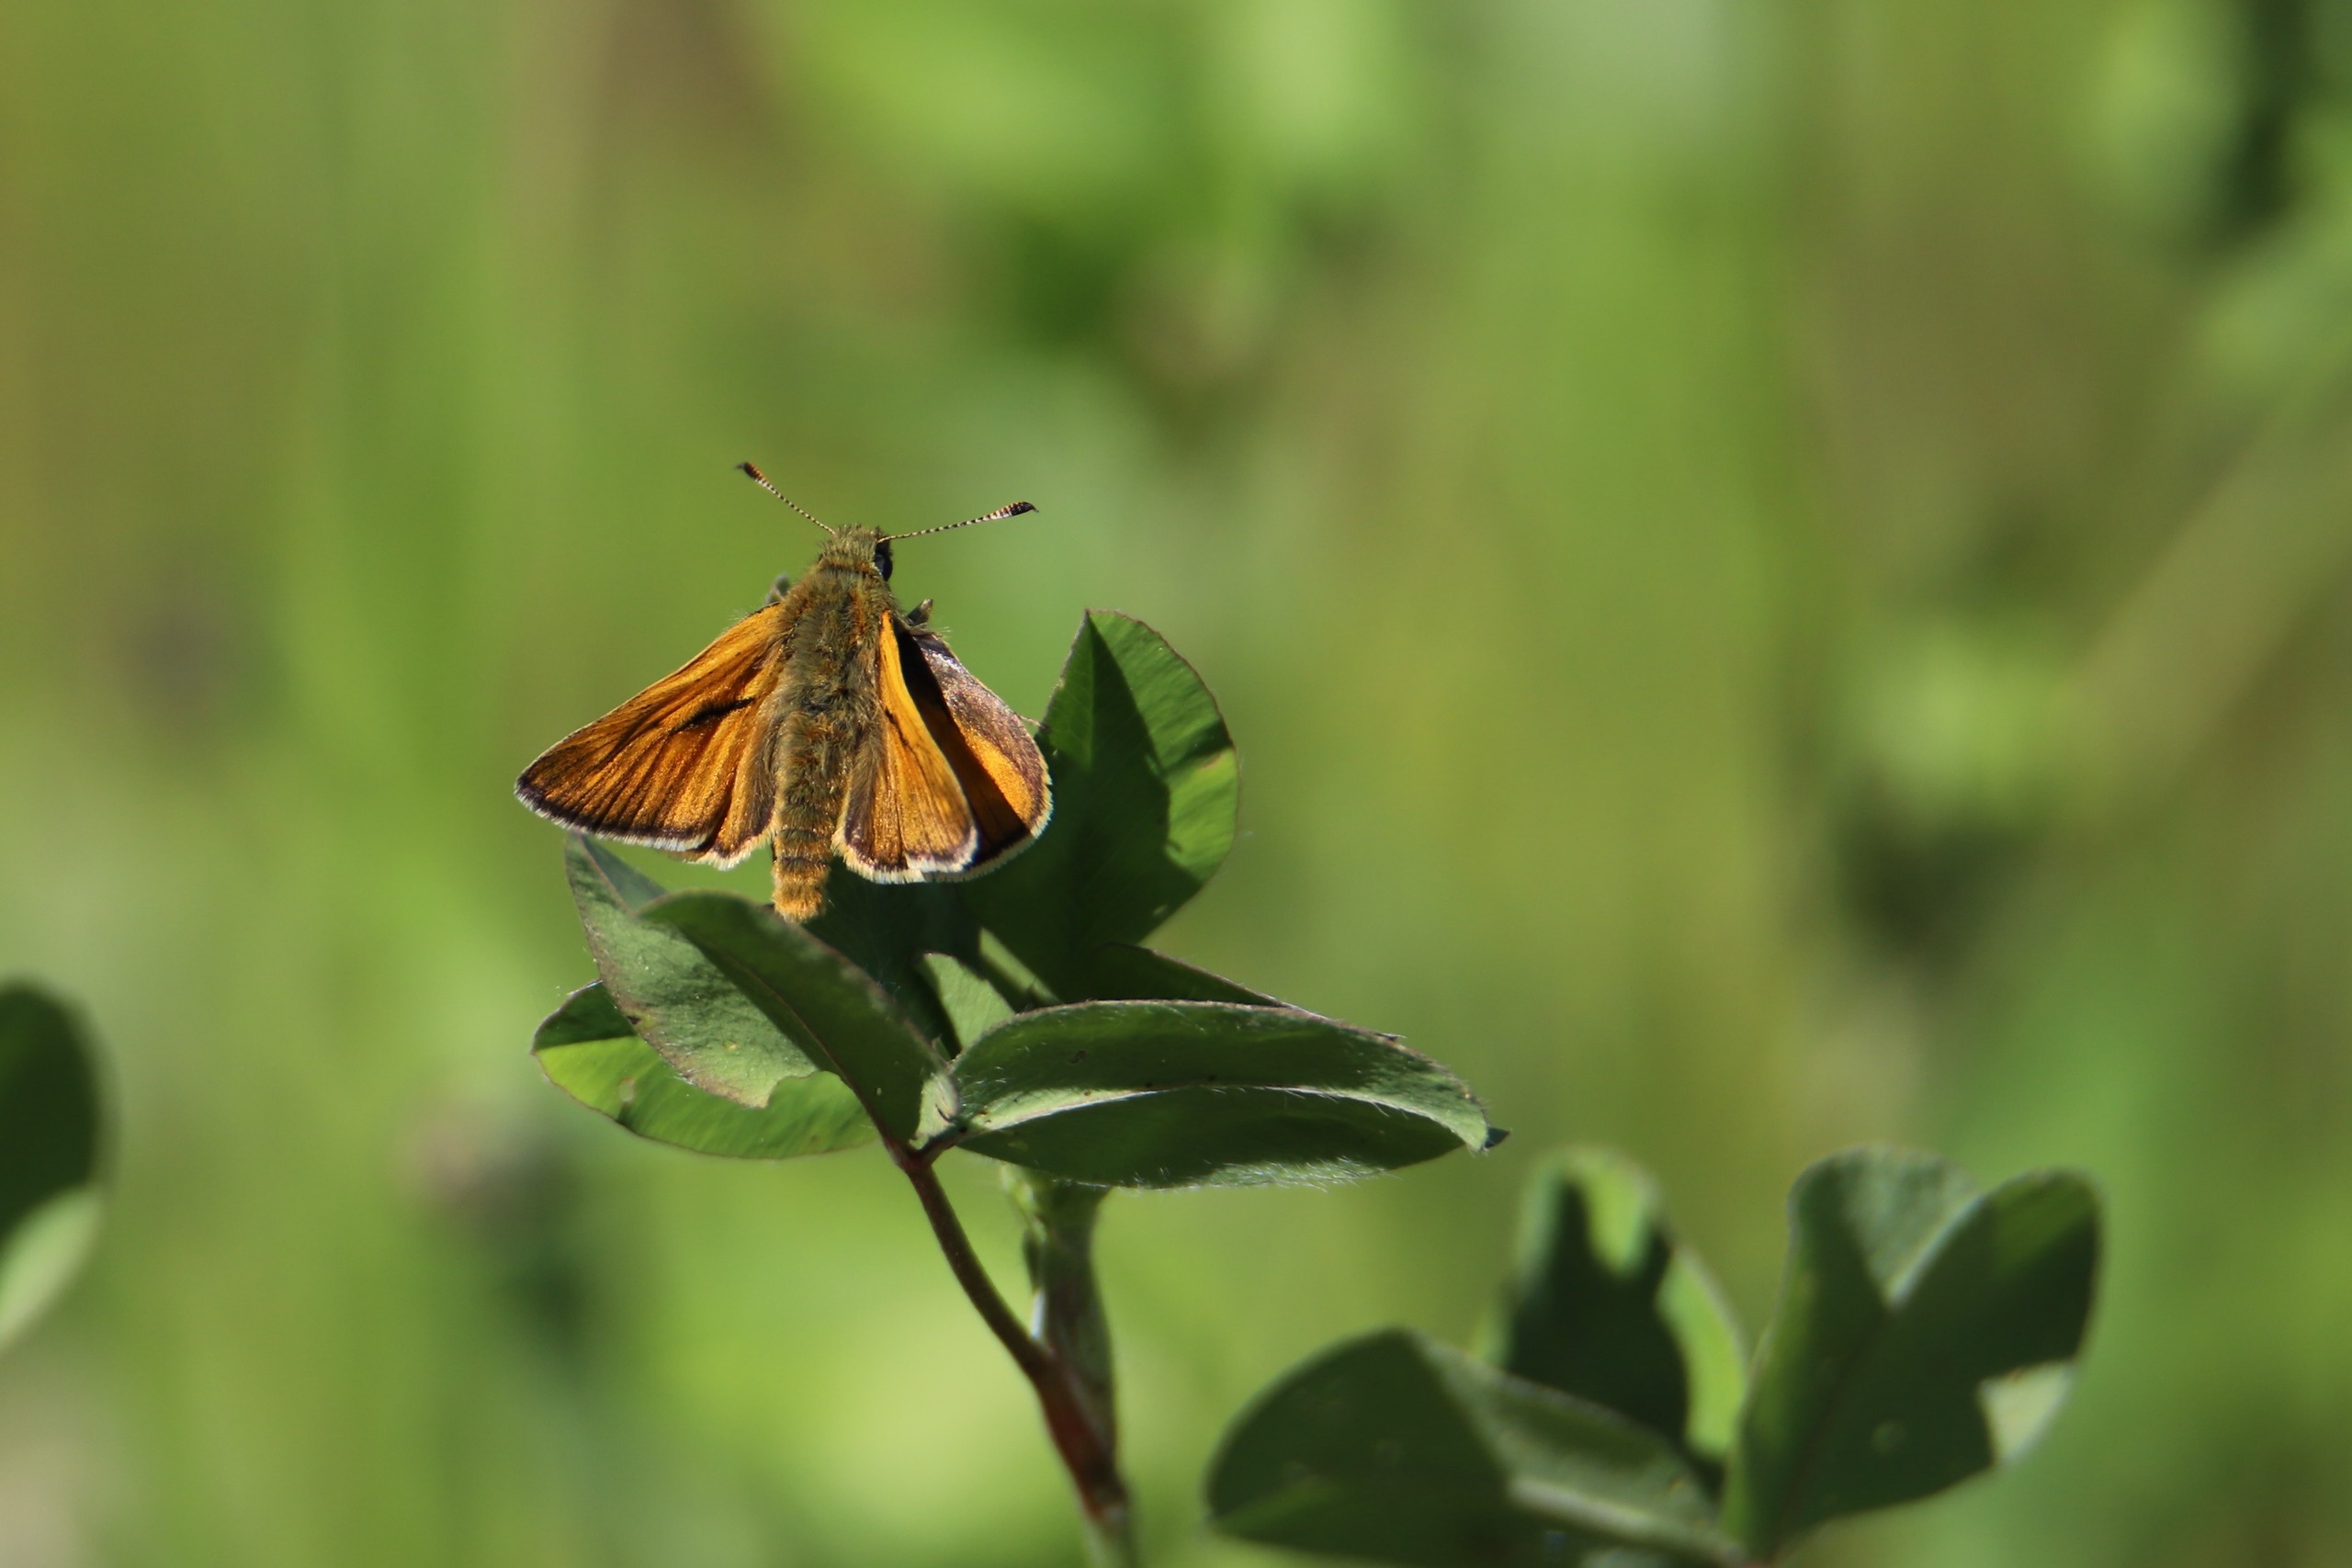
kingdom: Animalia
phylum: Arthropoda
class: Insecta
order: Lepidoptera
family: Hesperiidae
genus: Ochlodes
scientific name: Ochlodes venata
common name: Stor bredpande
